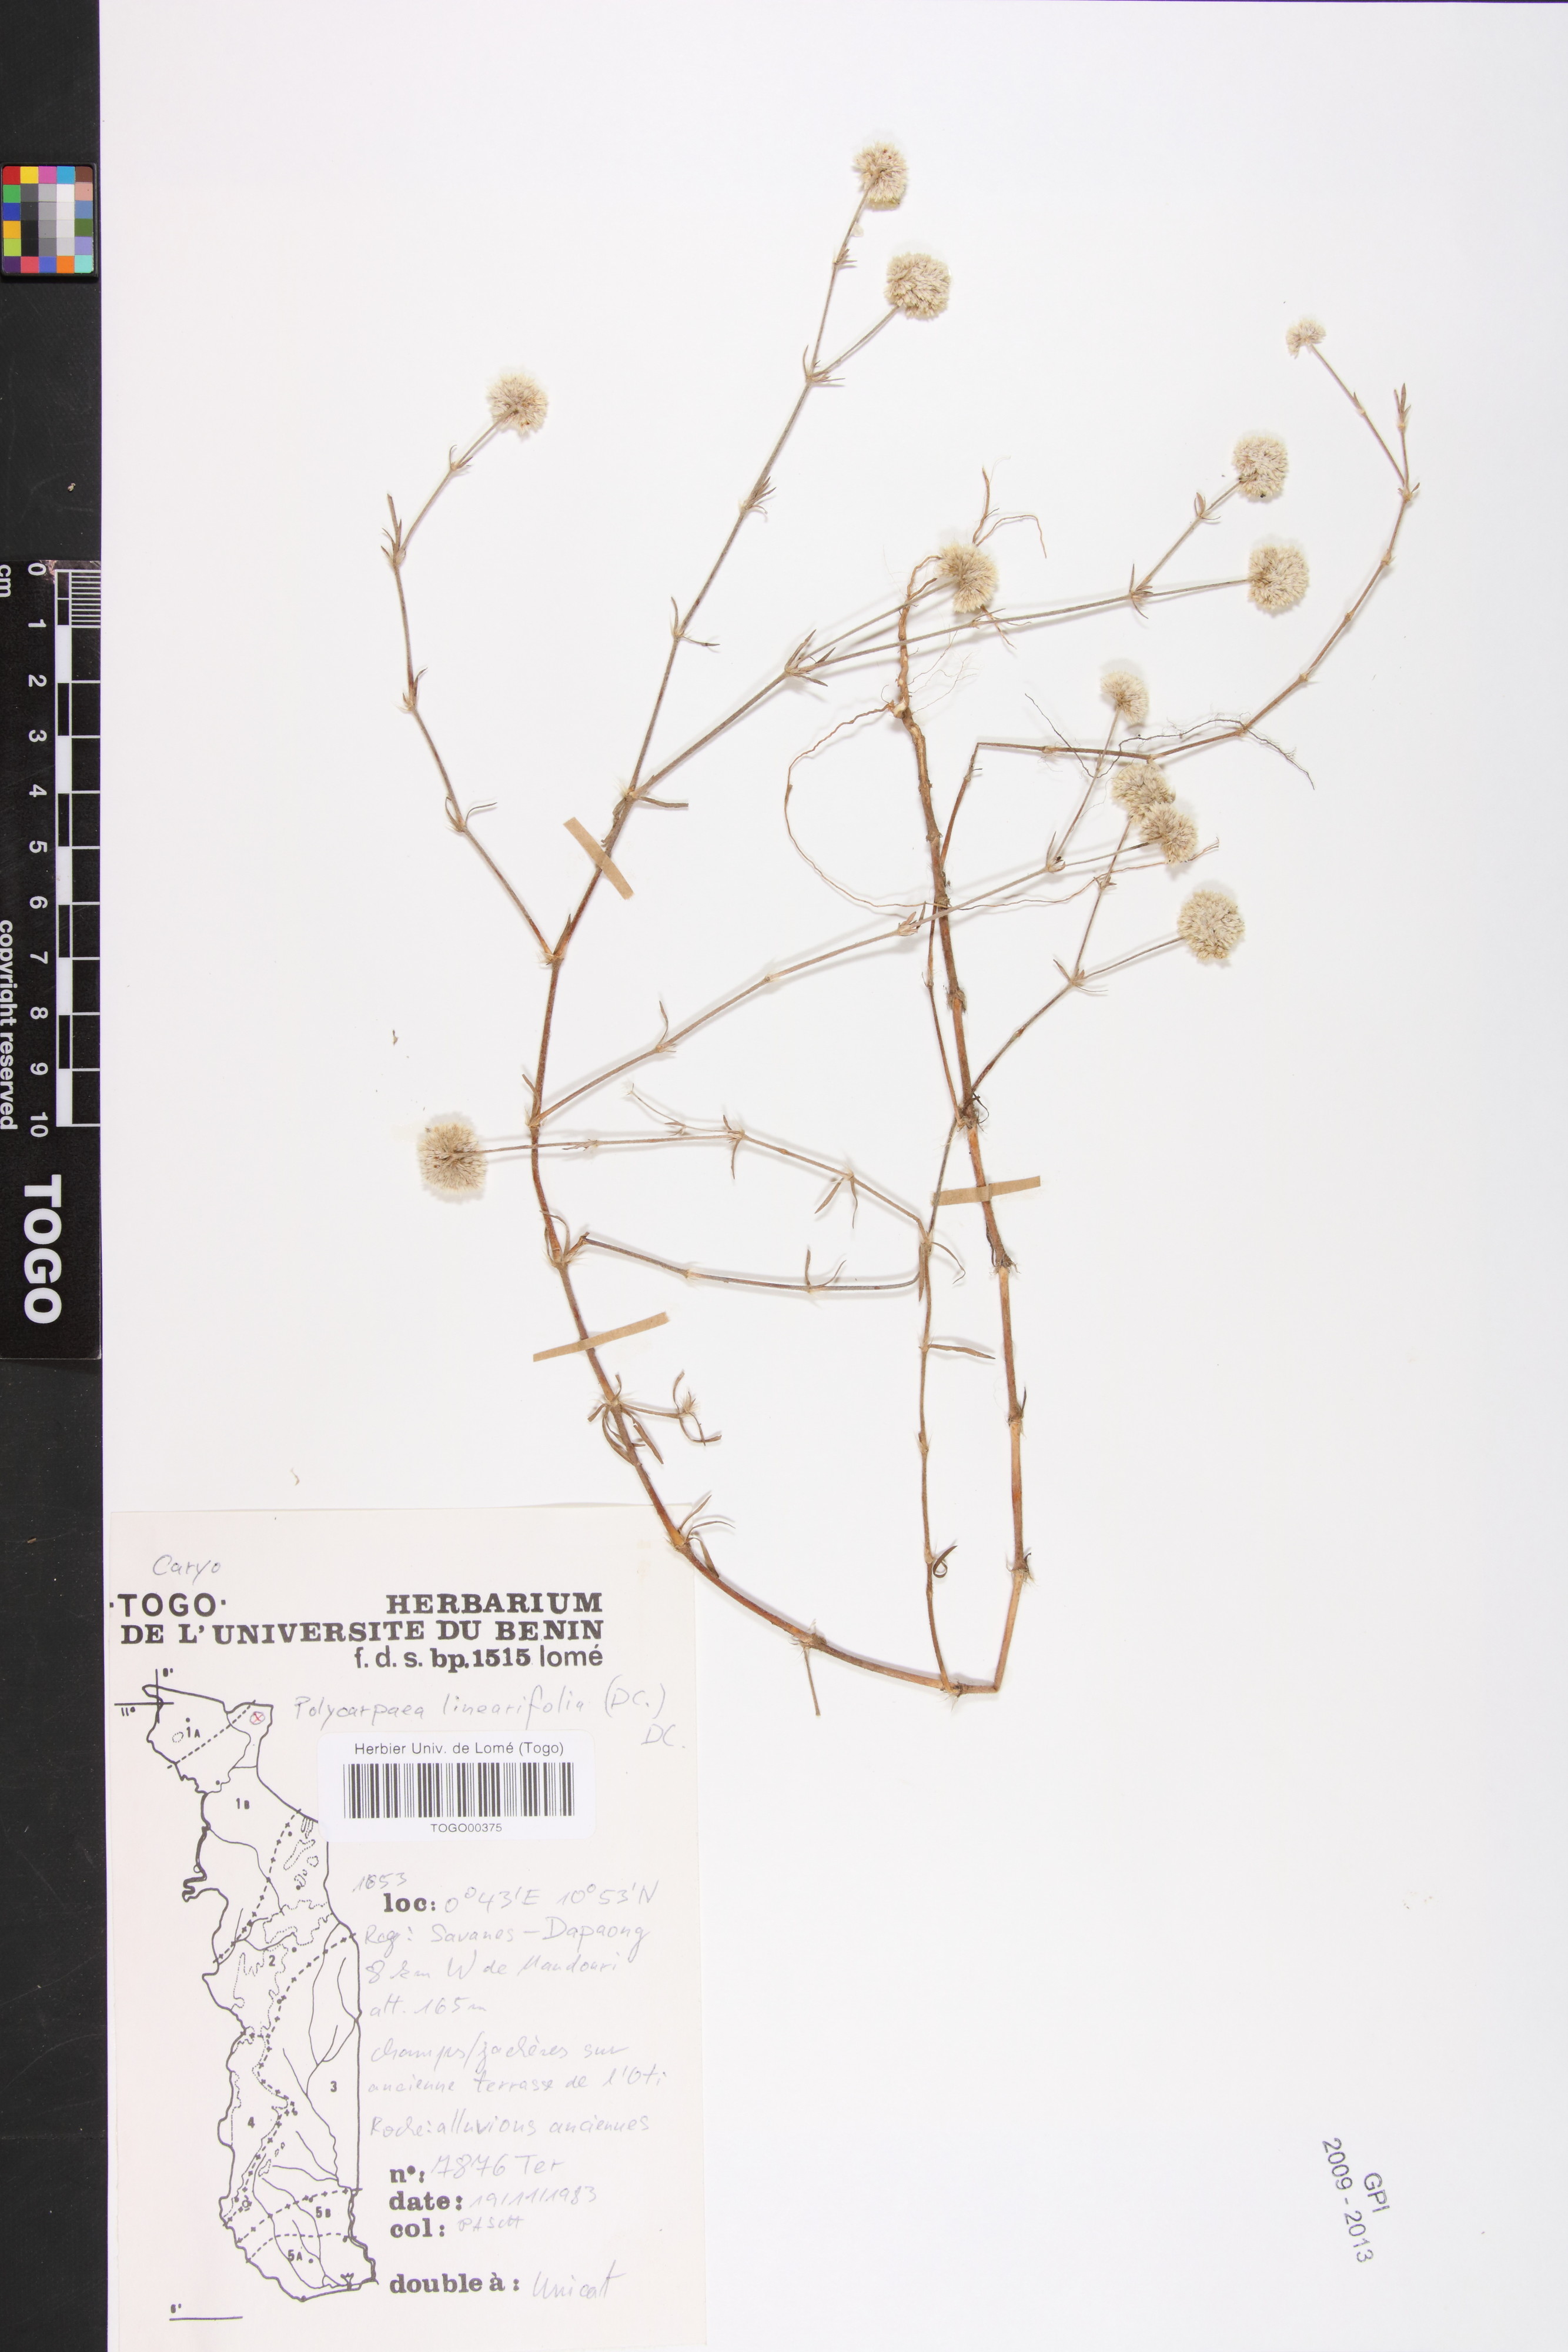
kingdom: Plantae
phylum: Tracheophyta
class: Magnoliopsida
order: Caryophyllales
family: Caryophyllaceae
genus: Polycarpaea
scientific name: Polycarpaea linearifolia
